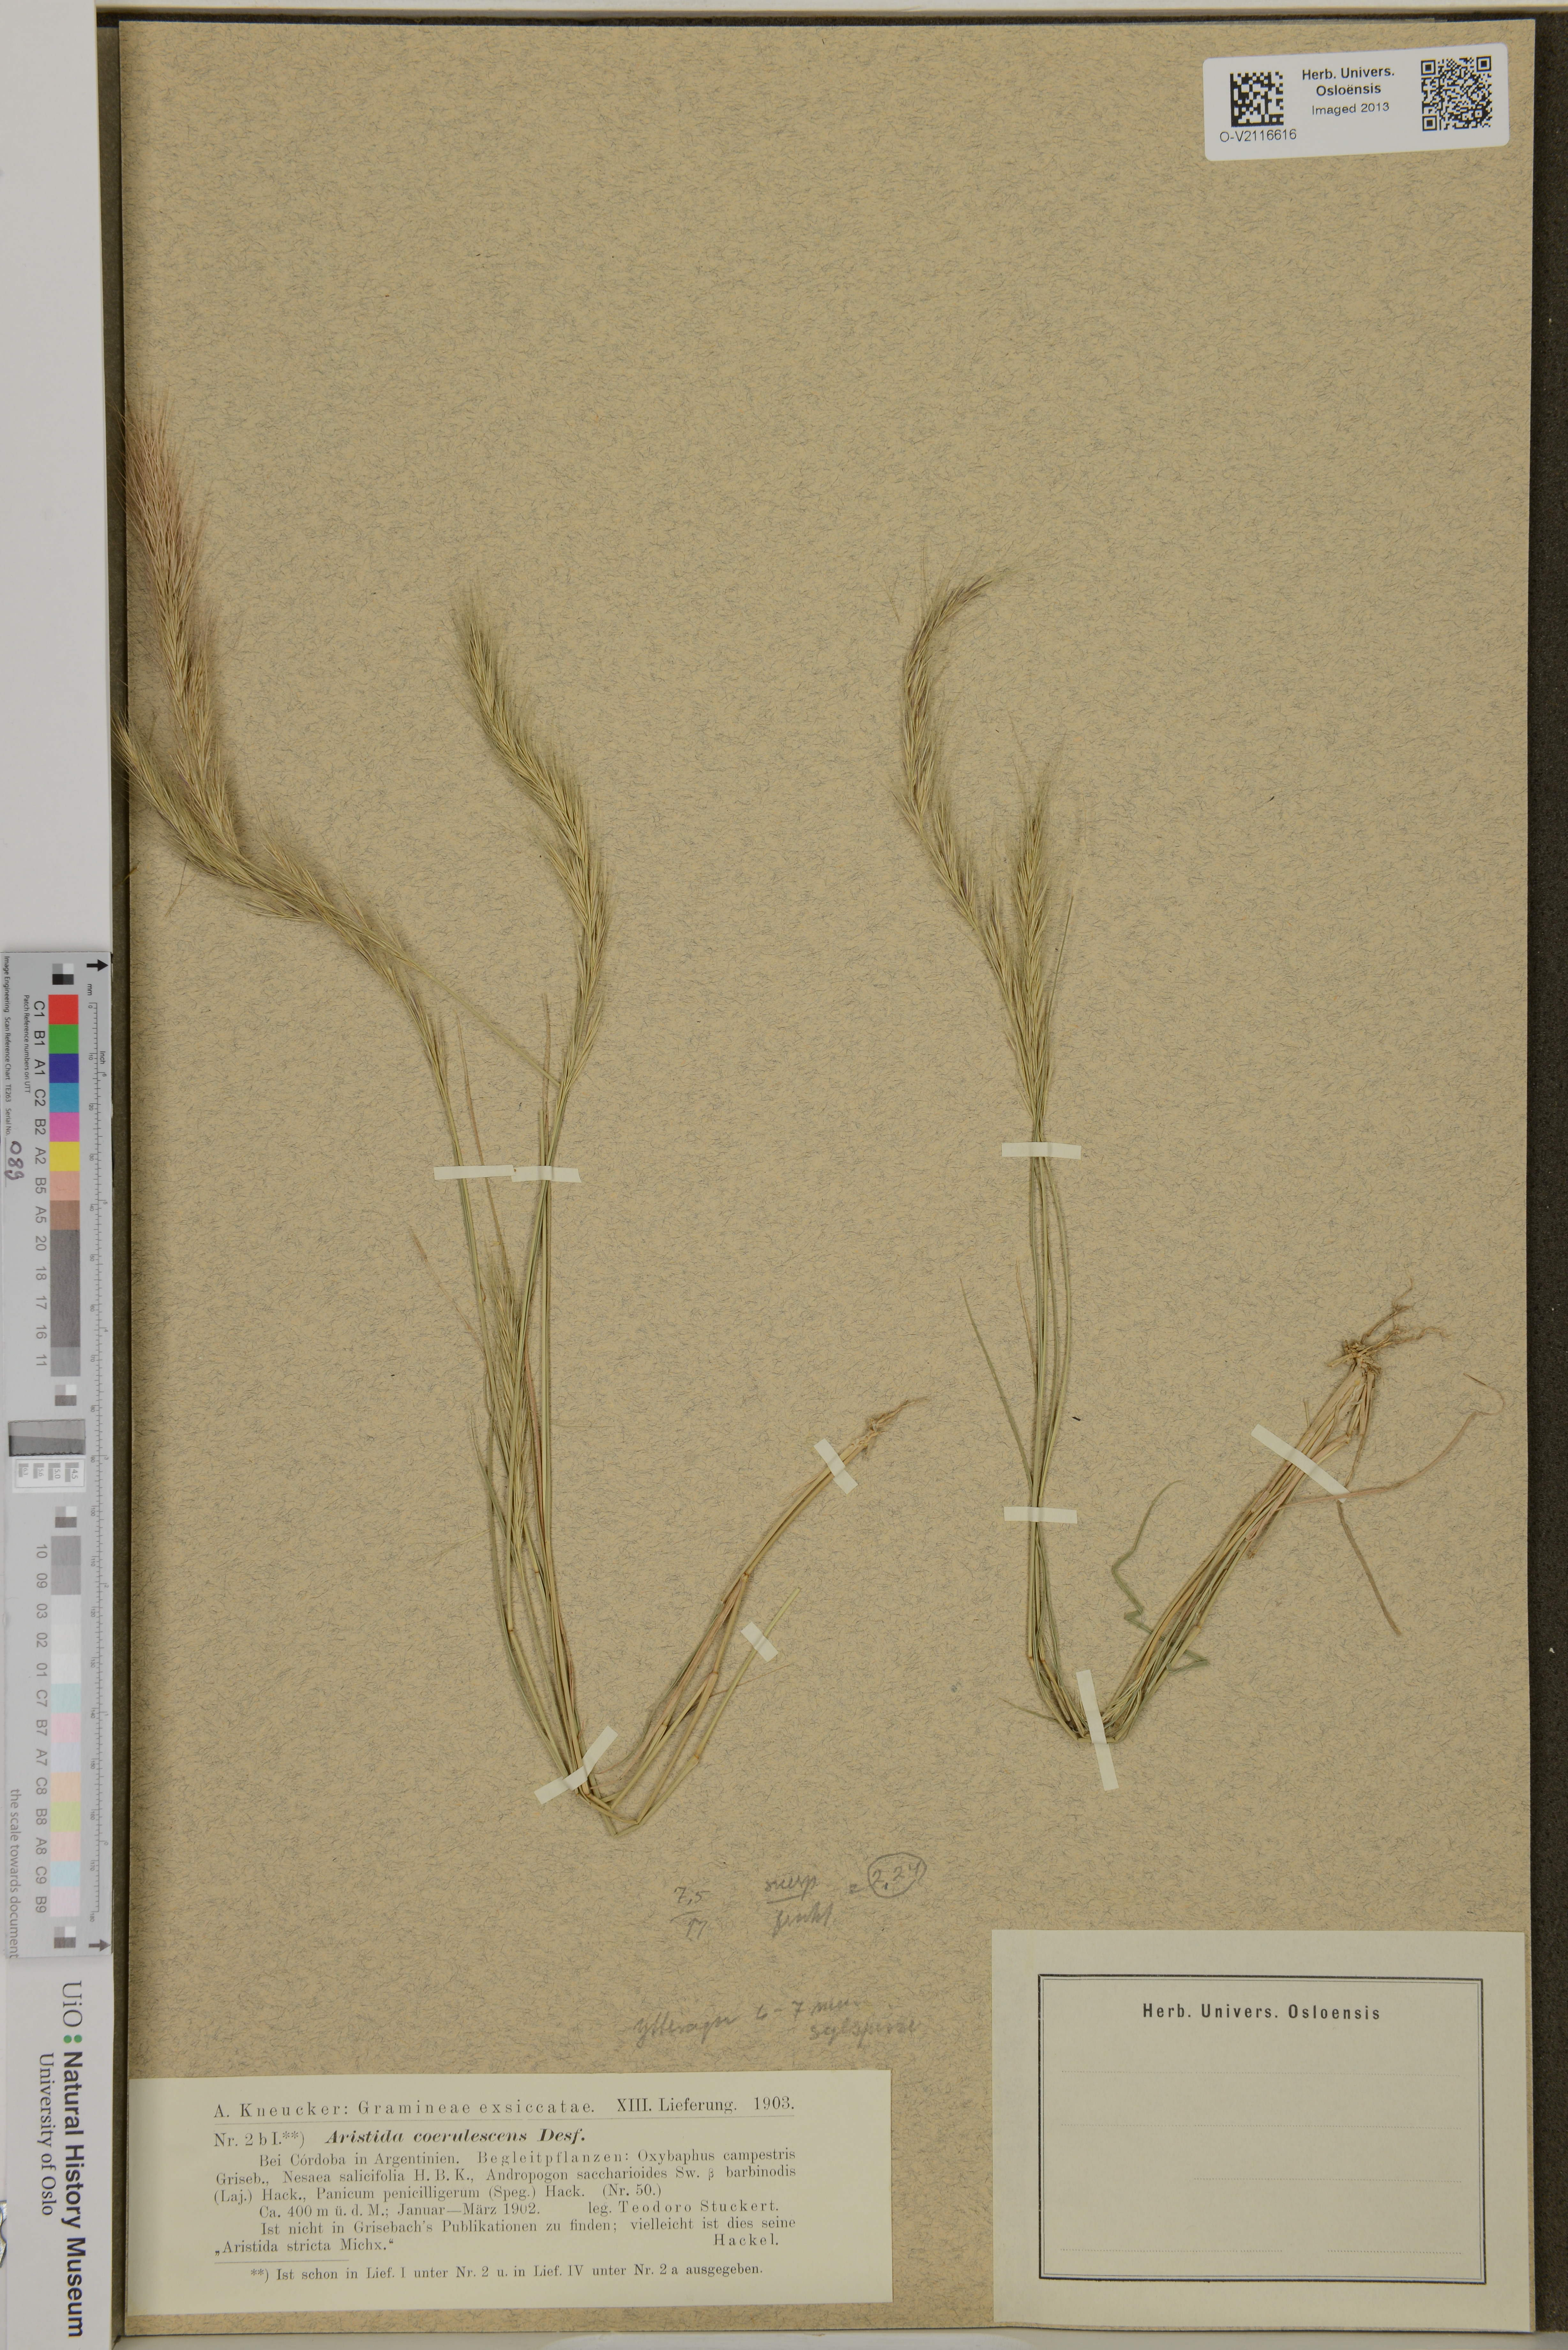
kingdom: Plantae
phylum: Tracheophyta
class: Liliopsida
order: Poales
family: Poaceae
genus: Aristida
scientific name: Aristida
